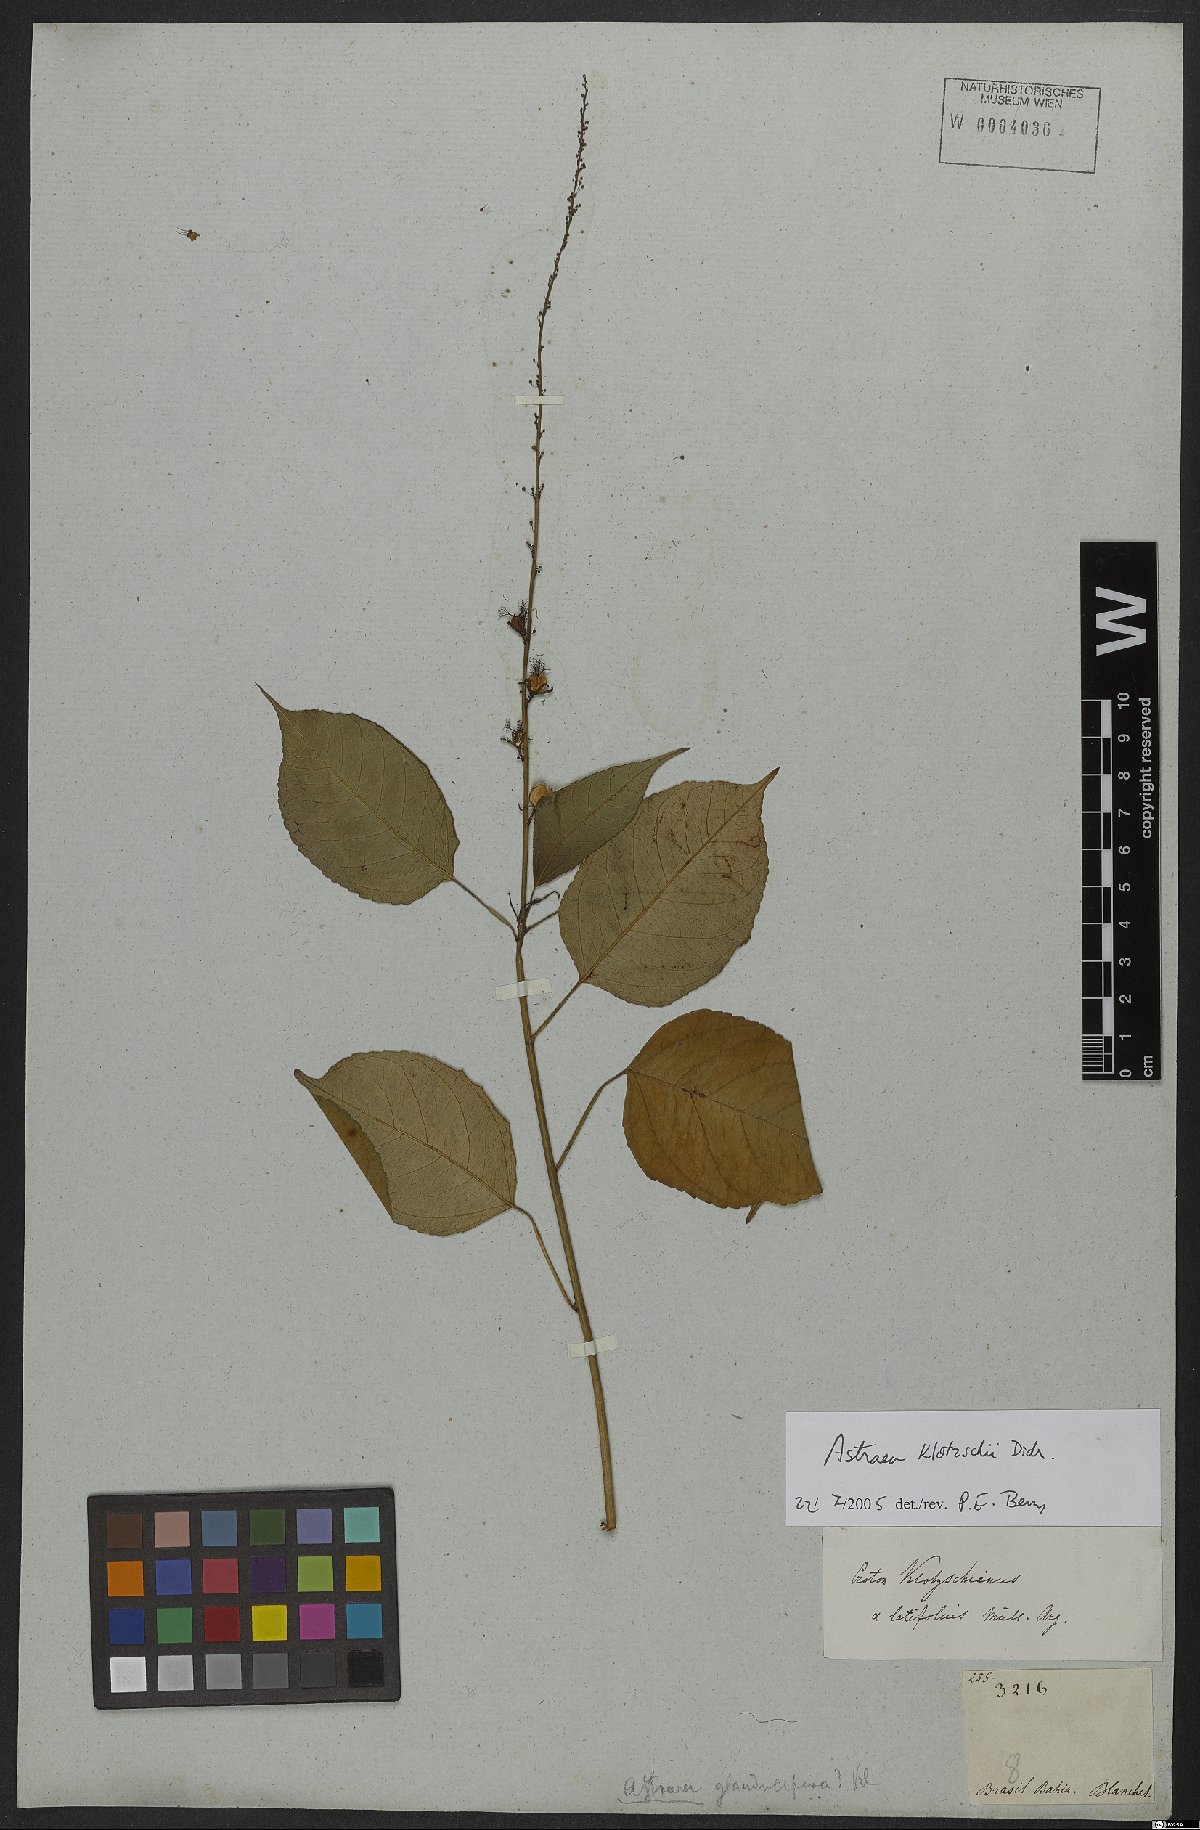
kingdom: Plantae
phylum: Tracheophyta
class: Magnoliopsida
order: Malpighiales
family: Euphorbiaceae
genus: Astraea
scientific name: Astraea macroura
